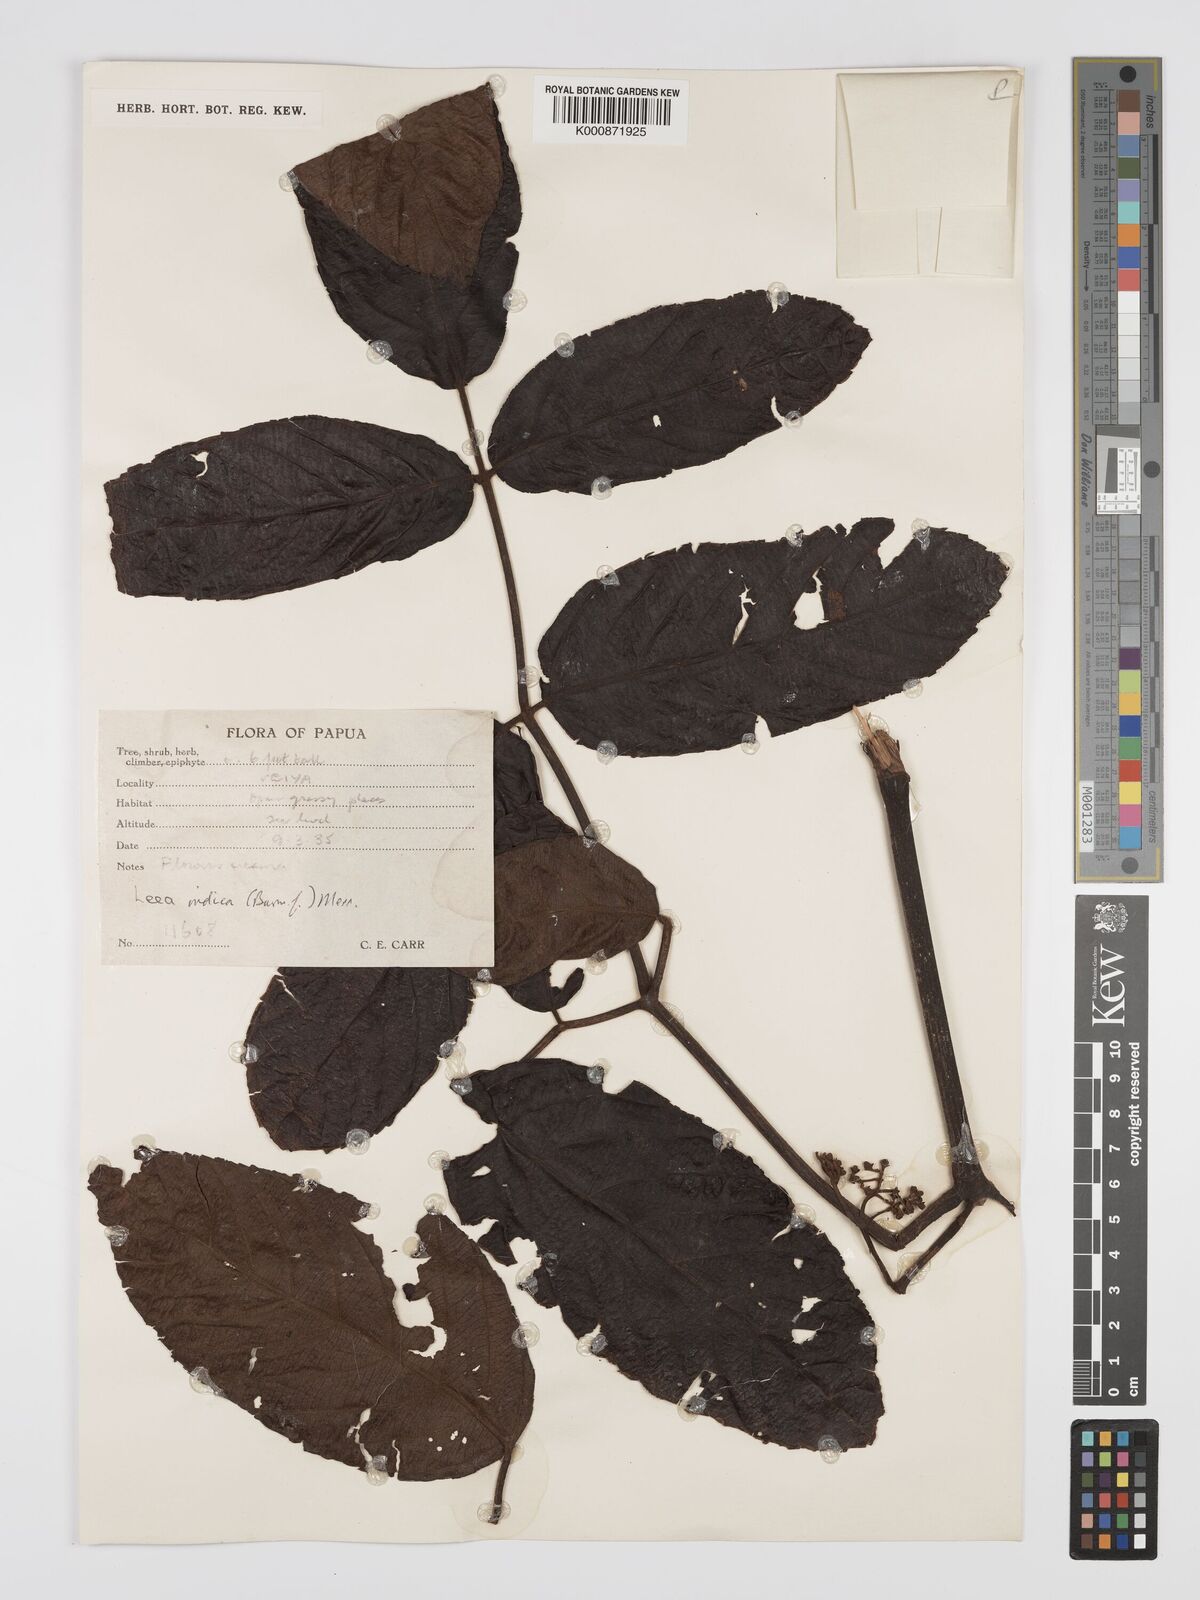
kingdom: Plantae
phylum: Tracheophyta
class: Magnoliopsida
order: Vitales
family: Vitaceae
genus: Leea
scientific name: Leea indica
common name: Bandicoot-berry
